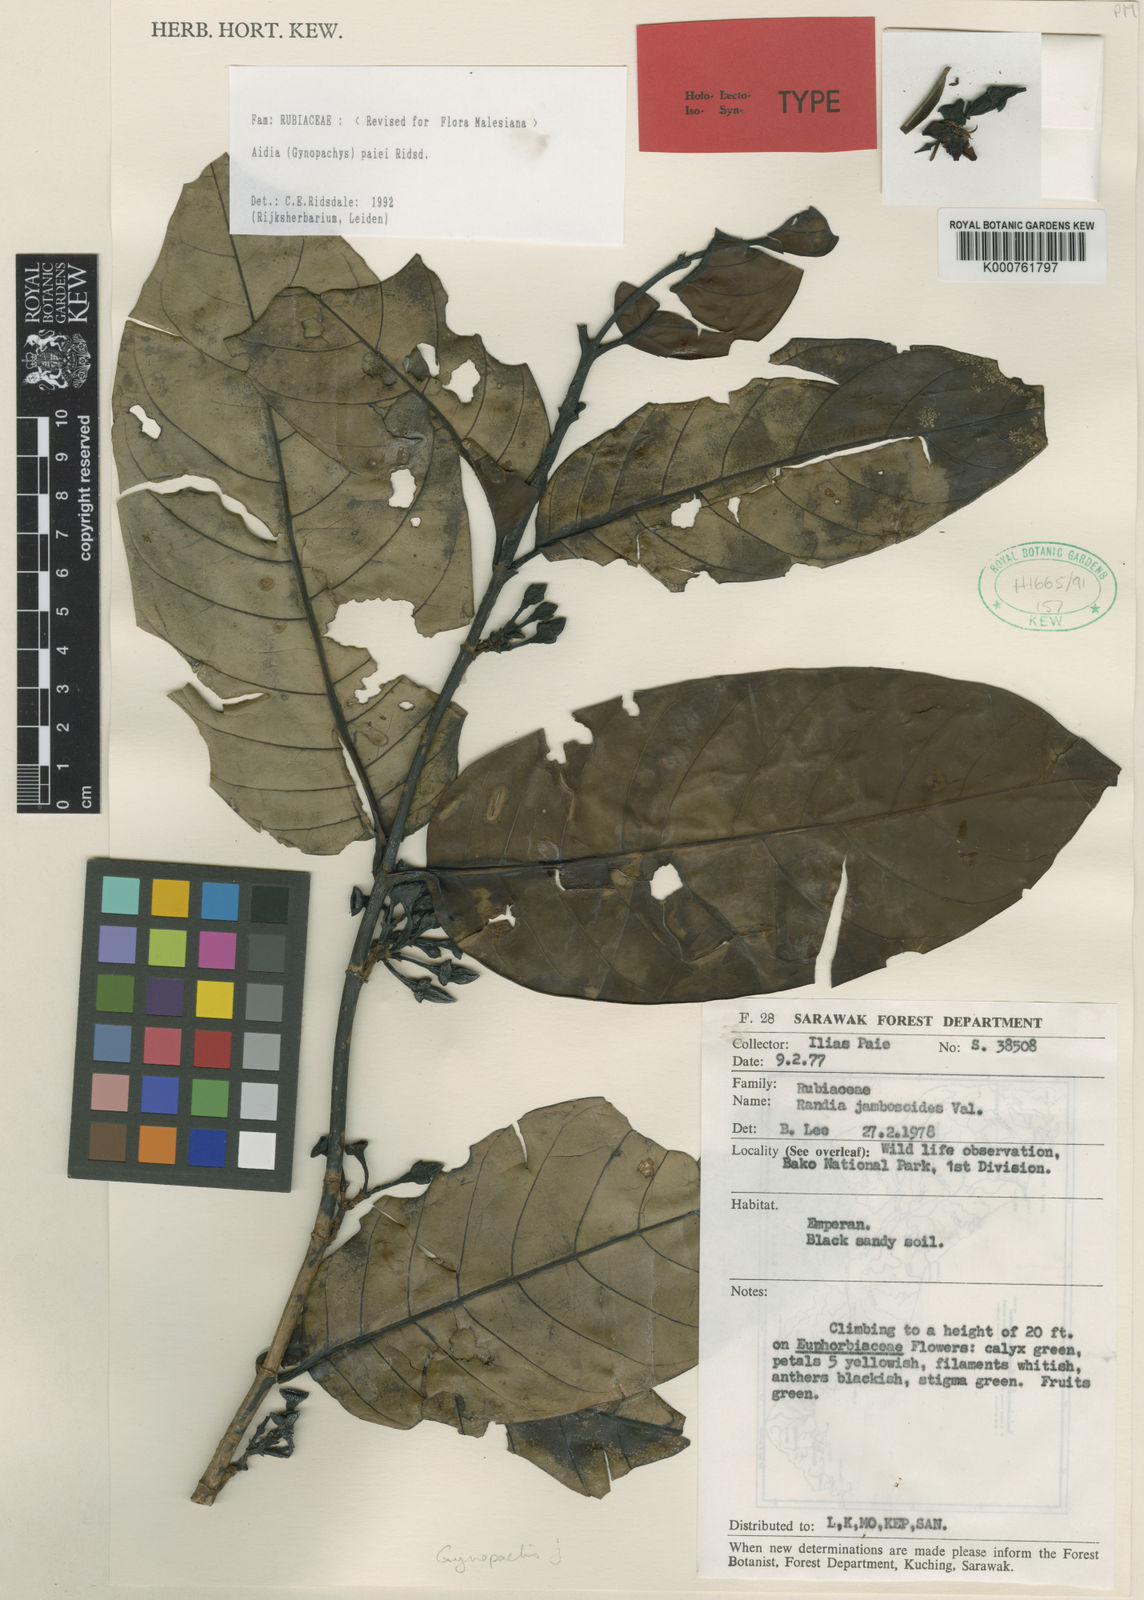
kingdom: Plantae
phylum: Tracheophyta
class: Magnoliopsida
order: Gentianales
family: Rubiaceae
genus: Aidia
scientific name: Aidia paiei
